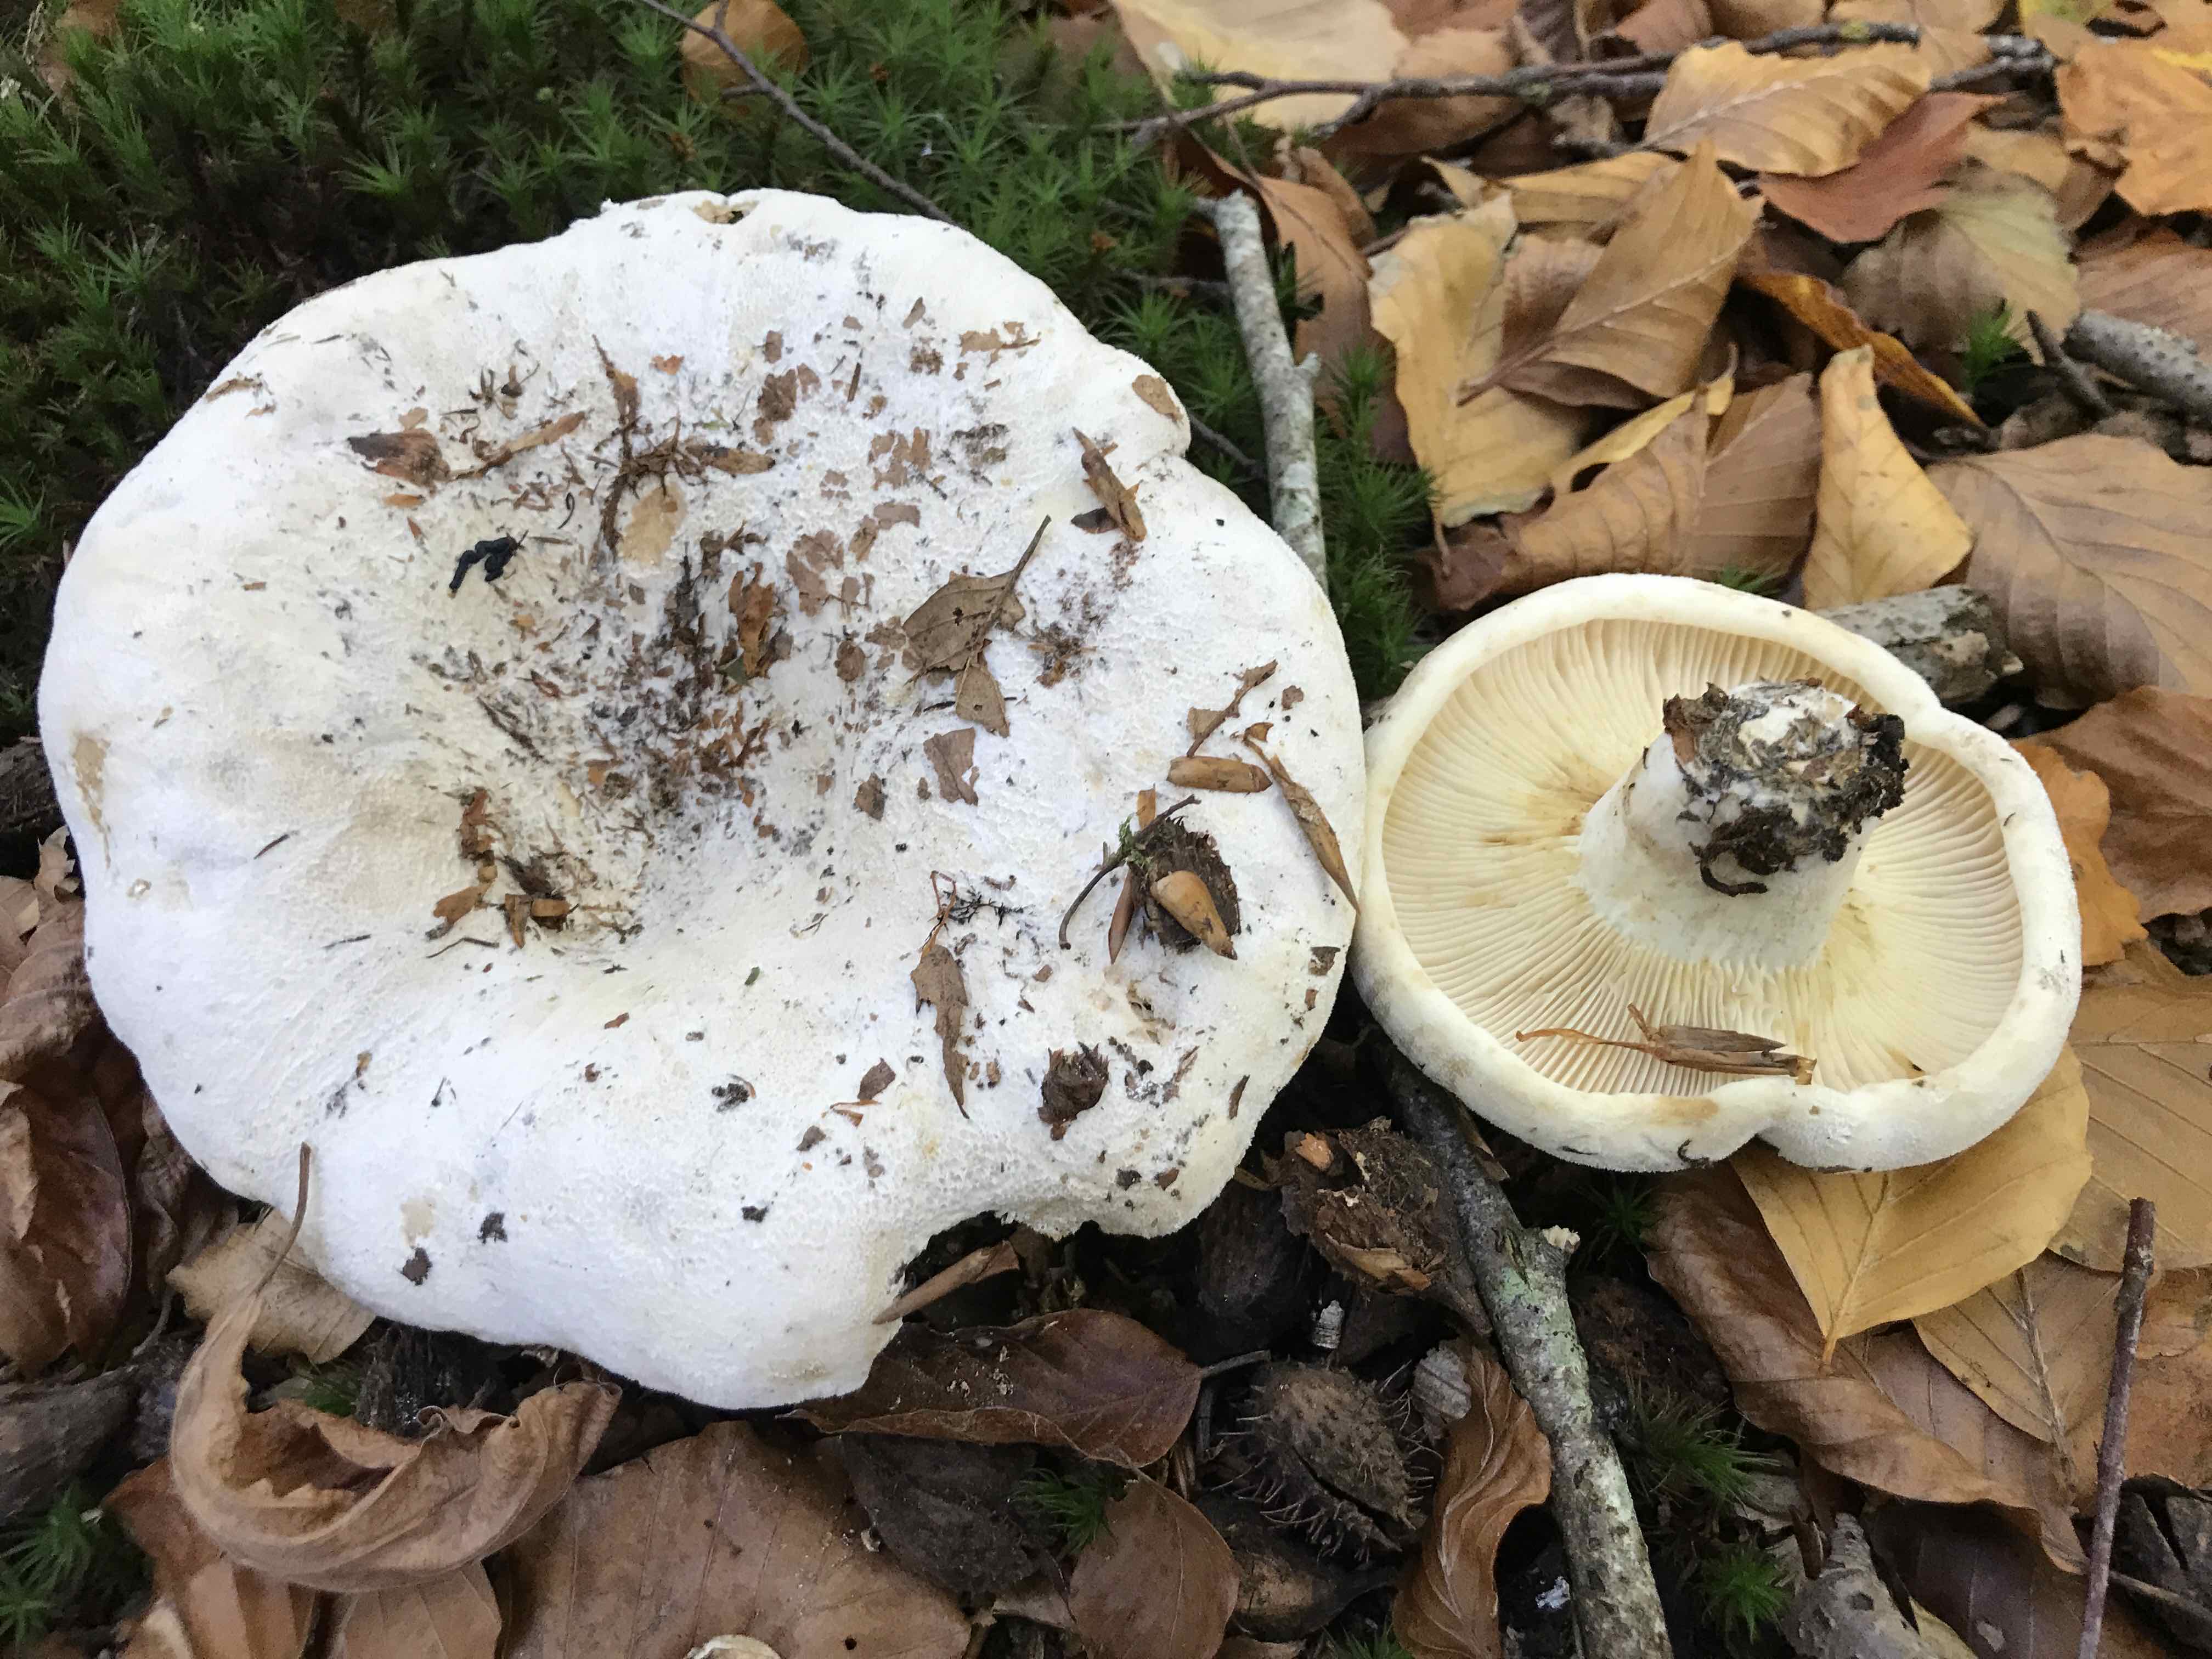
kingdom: Fungi
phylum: Basidiomycota
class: Agaricomycetes
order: Russulales
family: Russulaceae
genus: Lactifluus
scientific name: Lactifluus vellereus
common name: hvidfiltet mælkehat
